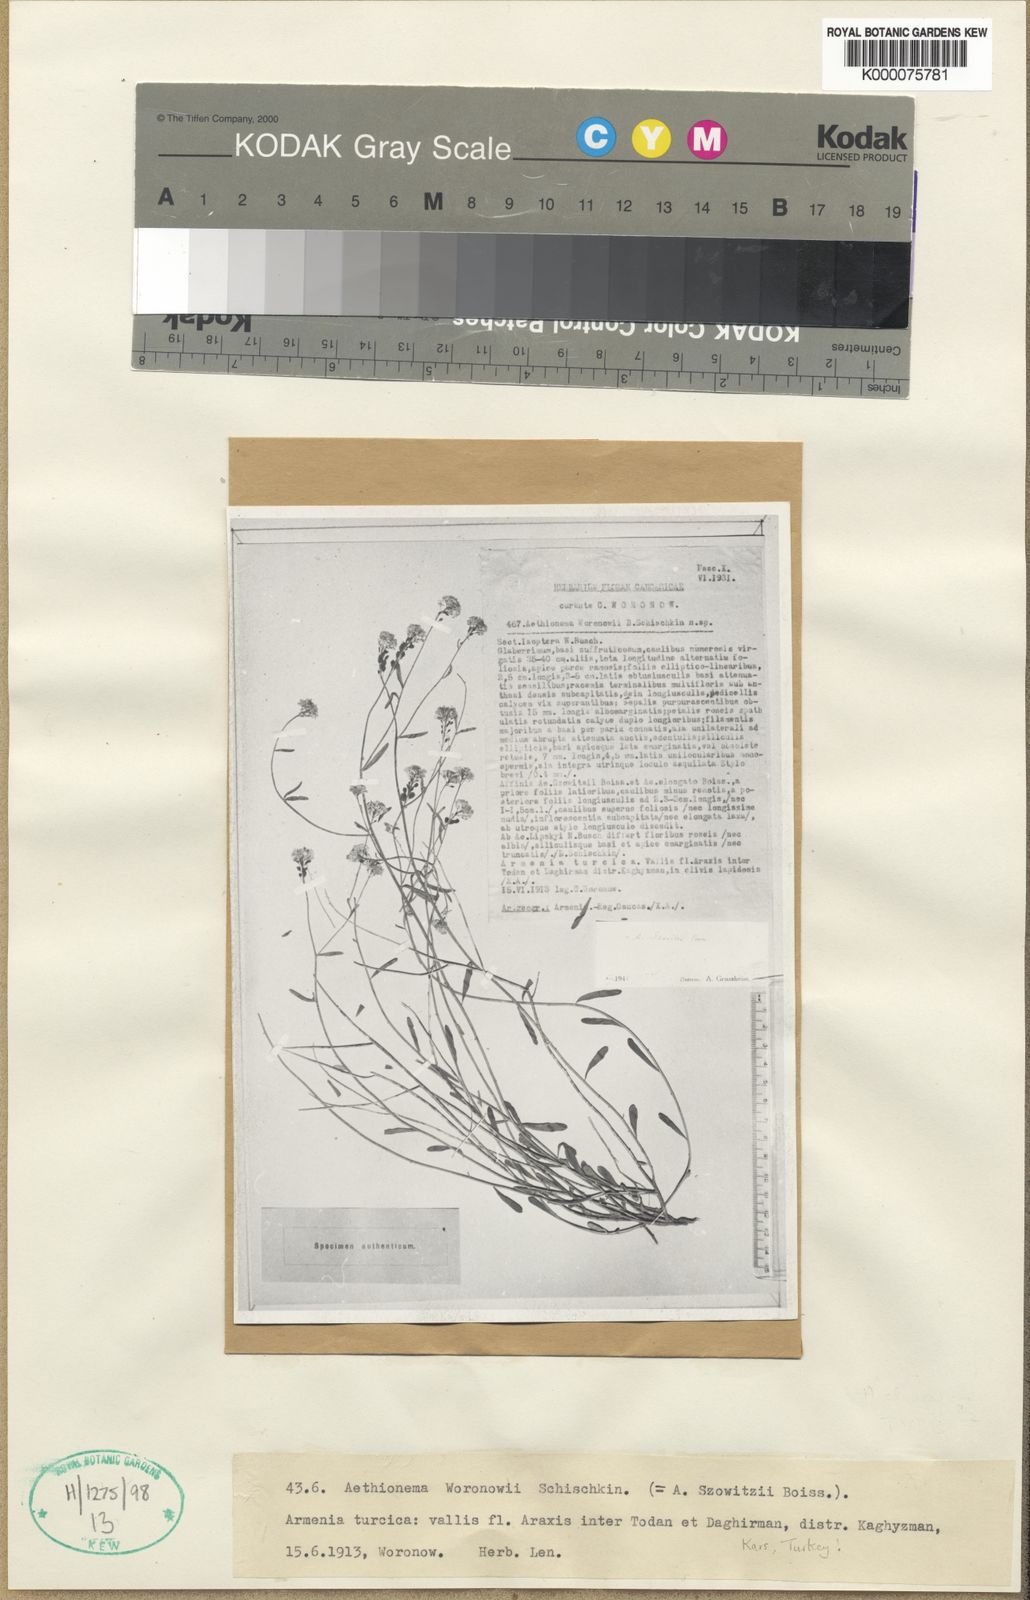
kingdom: Plantae
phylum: Tracheophyta
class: Magnoliopsida
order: Brassicales
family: Brassicaceae
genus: Aethionema
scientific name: Aethionema virgatum
